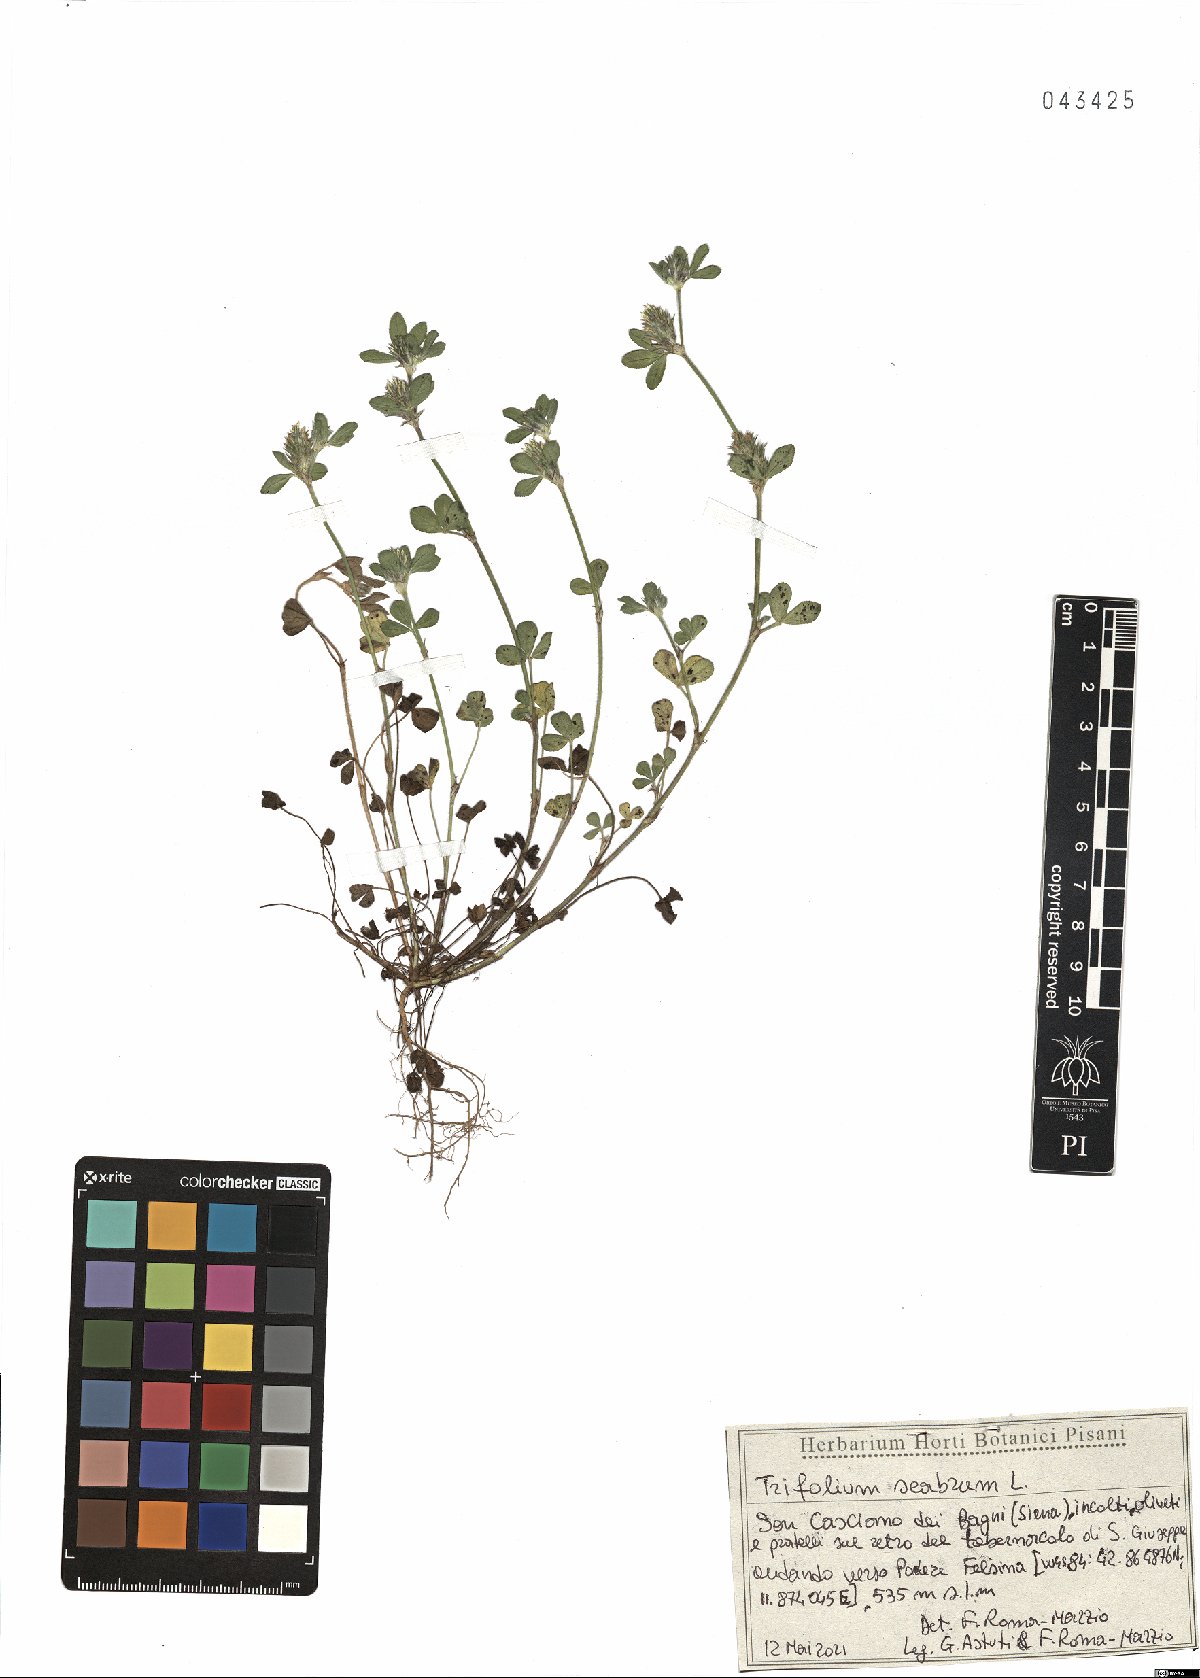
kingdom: Plantae
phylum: Tracheophyta
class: Magnoliopsida
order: Fabales
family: Fabaceae
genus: Trifolium
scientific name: Trifolium scabrum
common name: Rough clover
